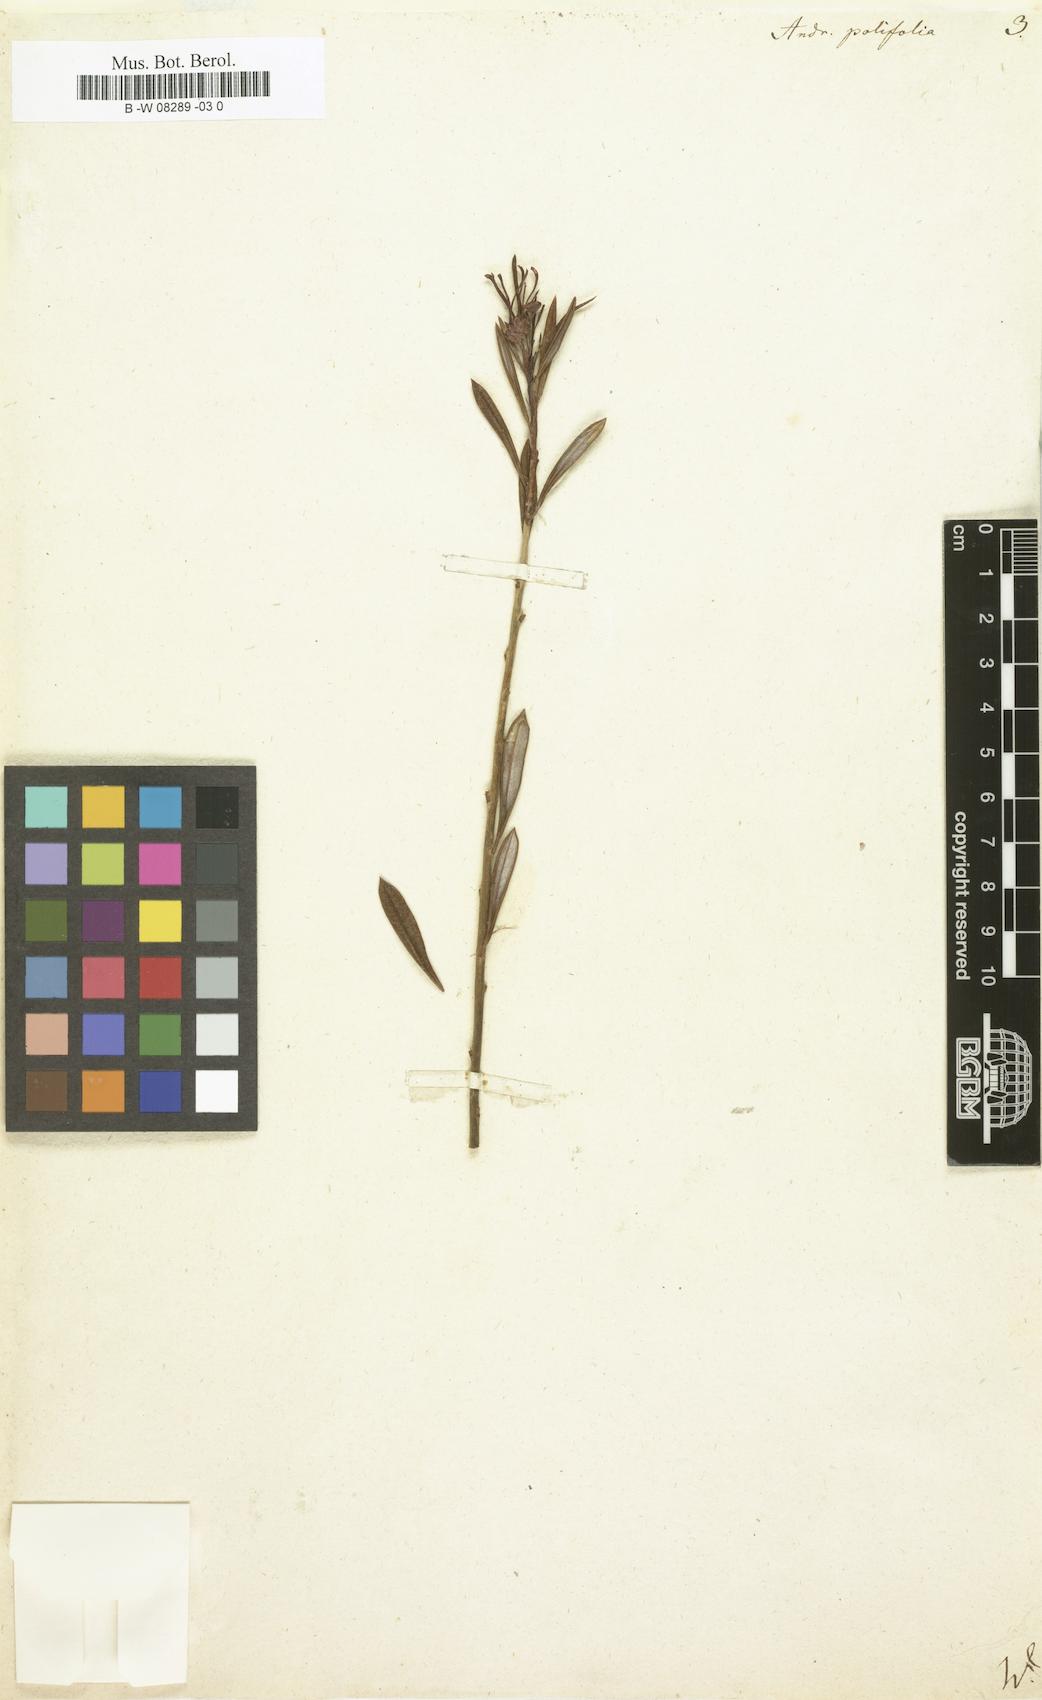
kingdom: Plantae
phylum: Tracheophyta
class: Magnoliopsida
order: Ericales
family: Ericaceae
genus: Andromeda
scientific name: Andromeda polifolia
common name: Bog-rosemary
